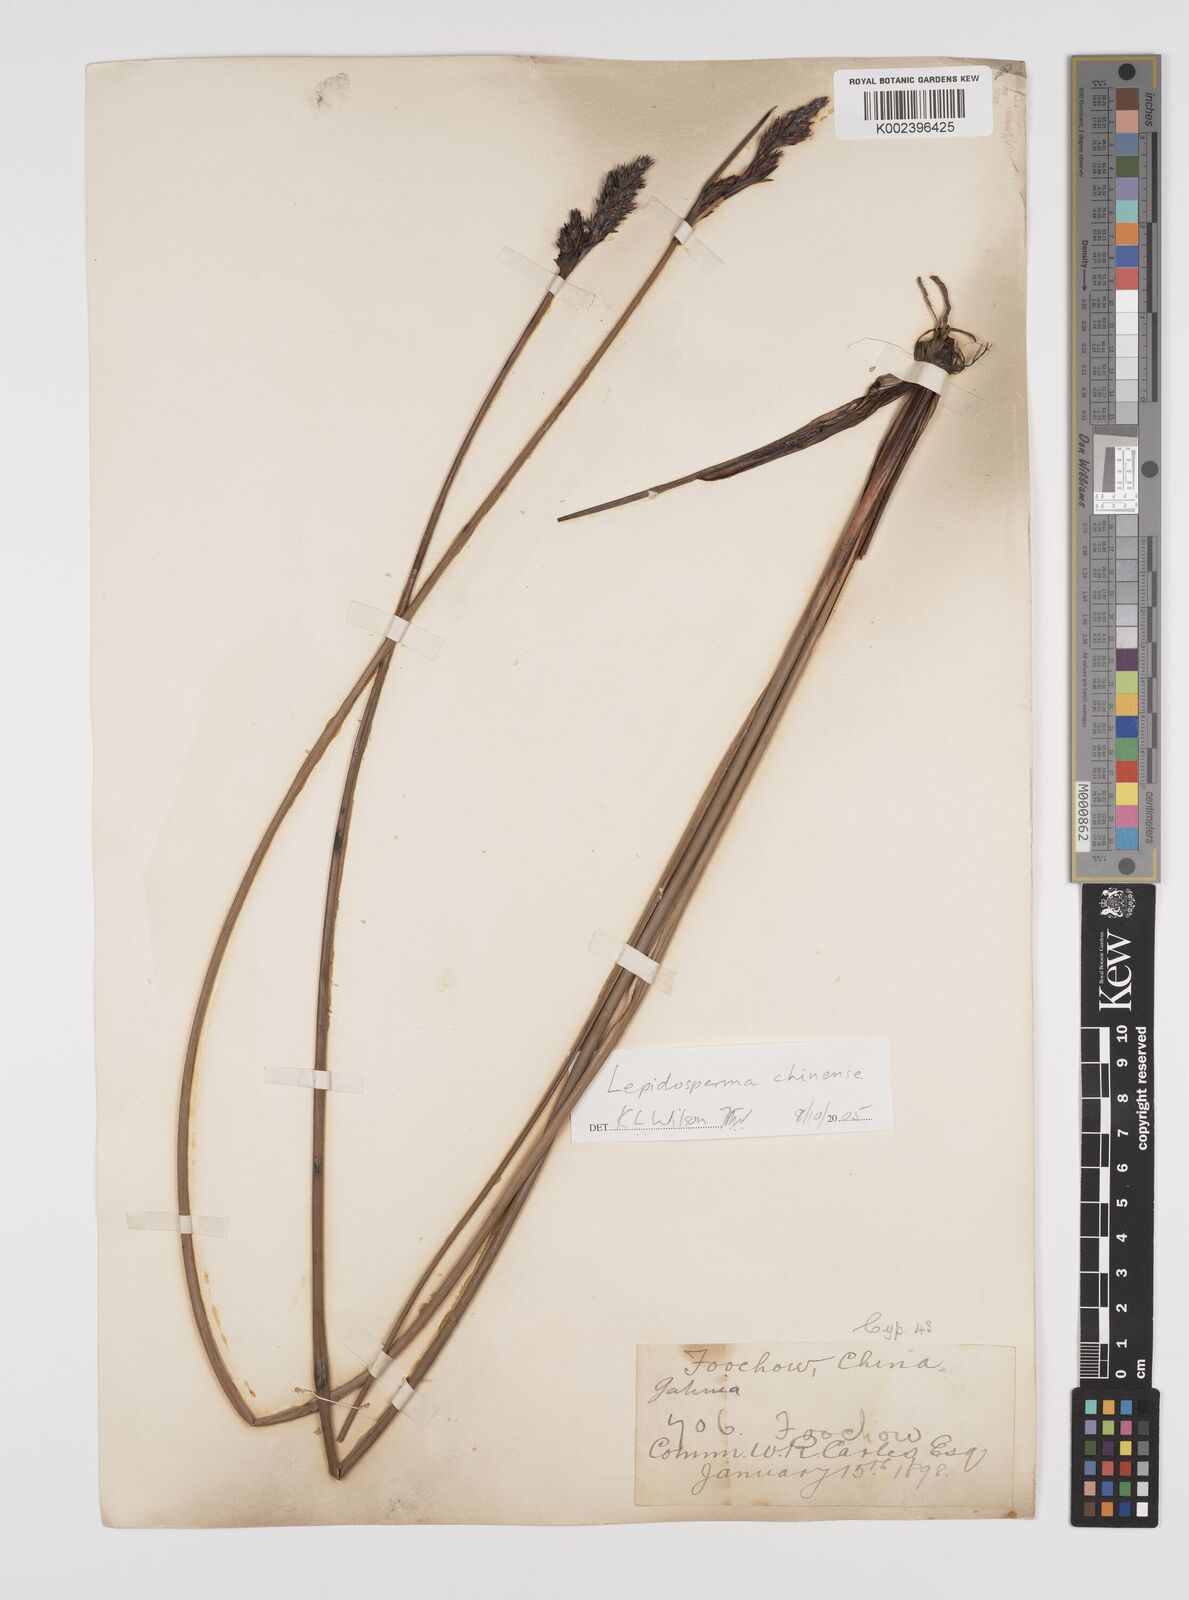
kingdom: Plantae
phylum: Tracheophyta
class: Liliopsida
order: Poales
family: Cyperaceae
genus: Lepidosperma
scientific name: Lepidosperma chinense
